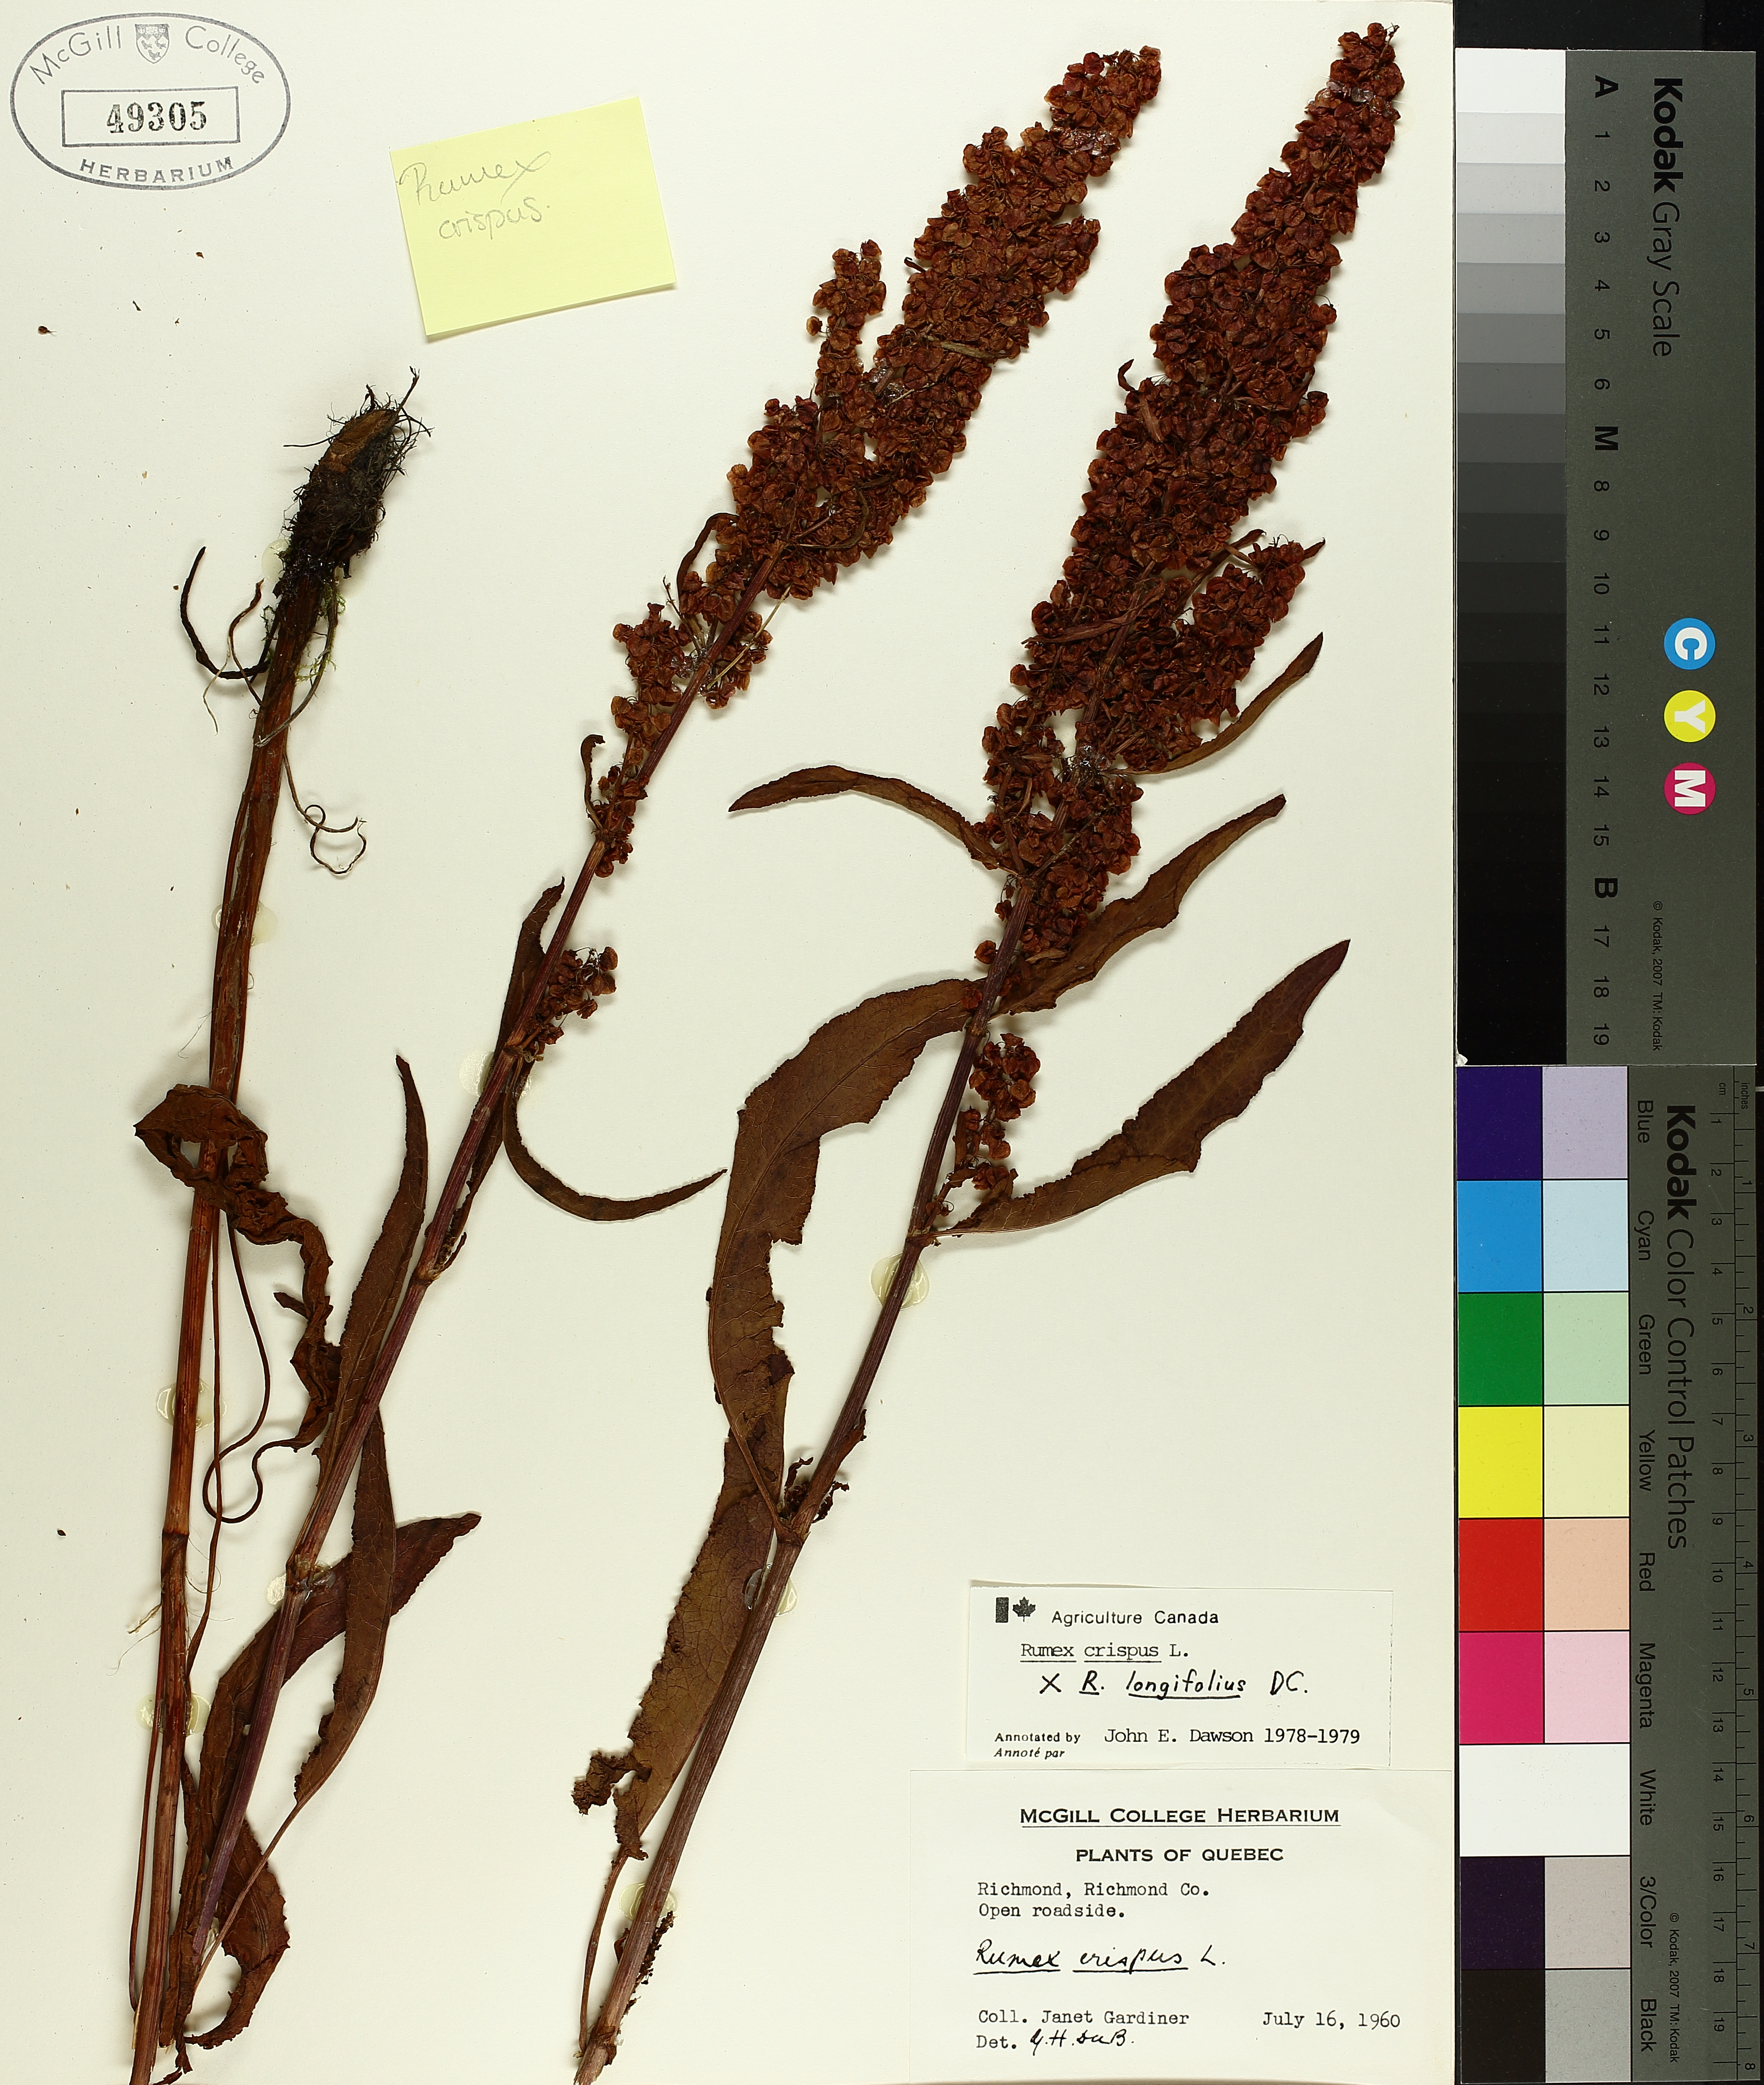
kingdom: Plantae
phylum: Tracheophyta
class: Magnoliopsida
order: Caryophyllales
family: Polygonaceae
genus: Rumex
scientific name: Rumex crispus
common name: Curled dock
